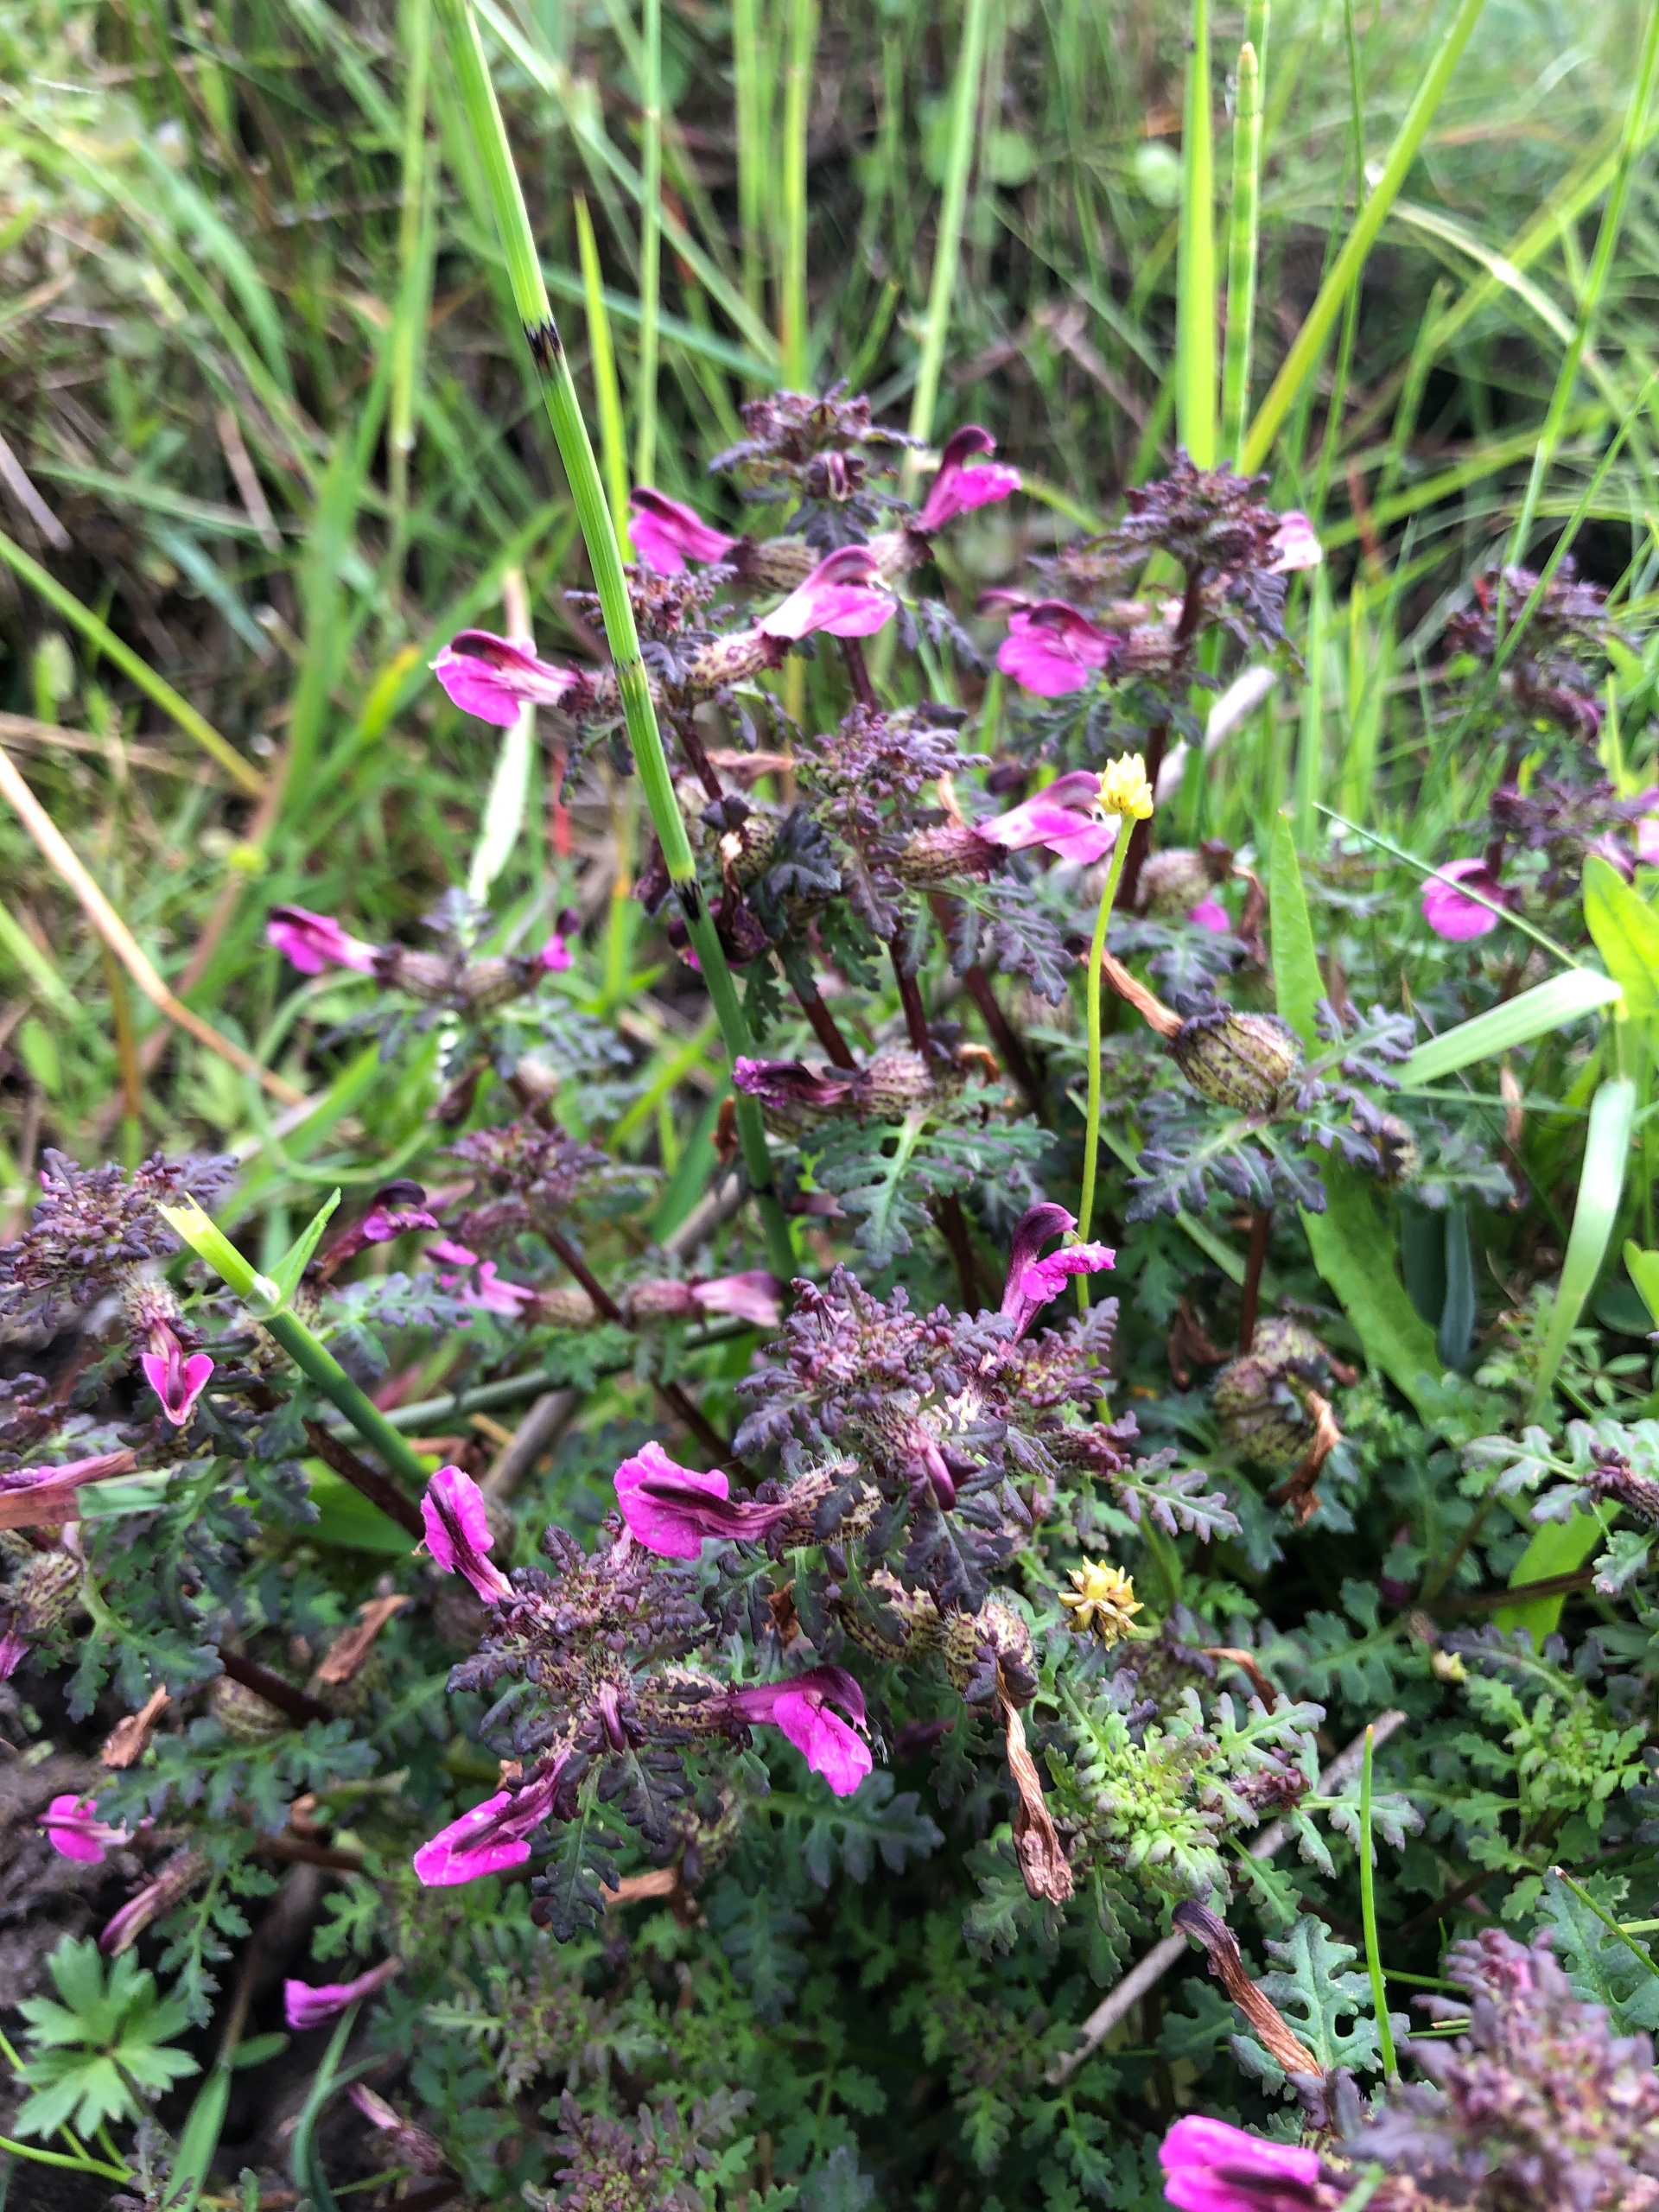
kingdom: Plantae
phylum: Tracheophyta
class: Magnoliopsida
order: Lamiales
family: Orobanchaceae
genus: Pedicularis
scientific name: Pedicularis palustris
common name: Eng-troldurt
